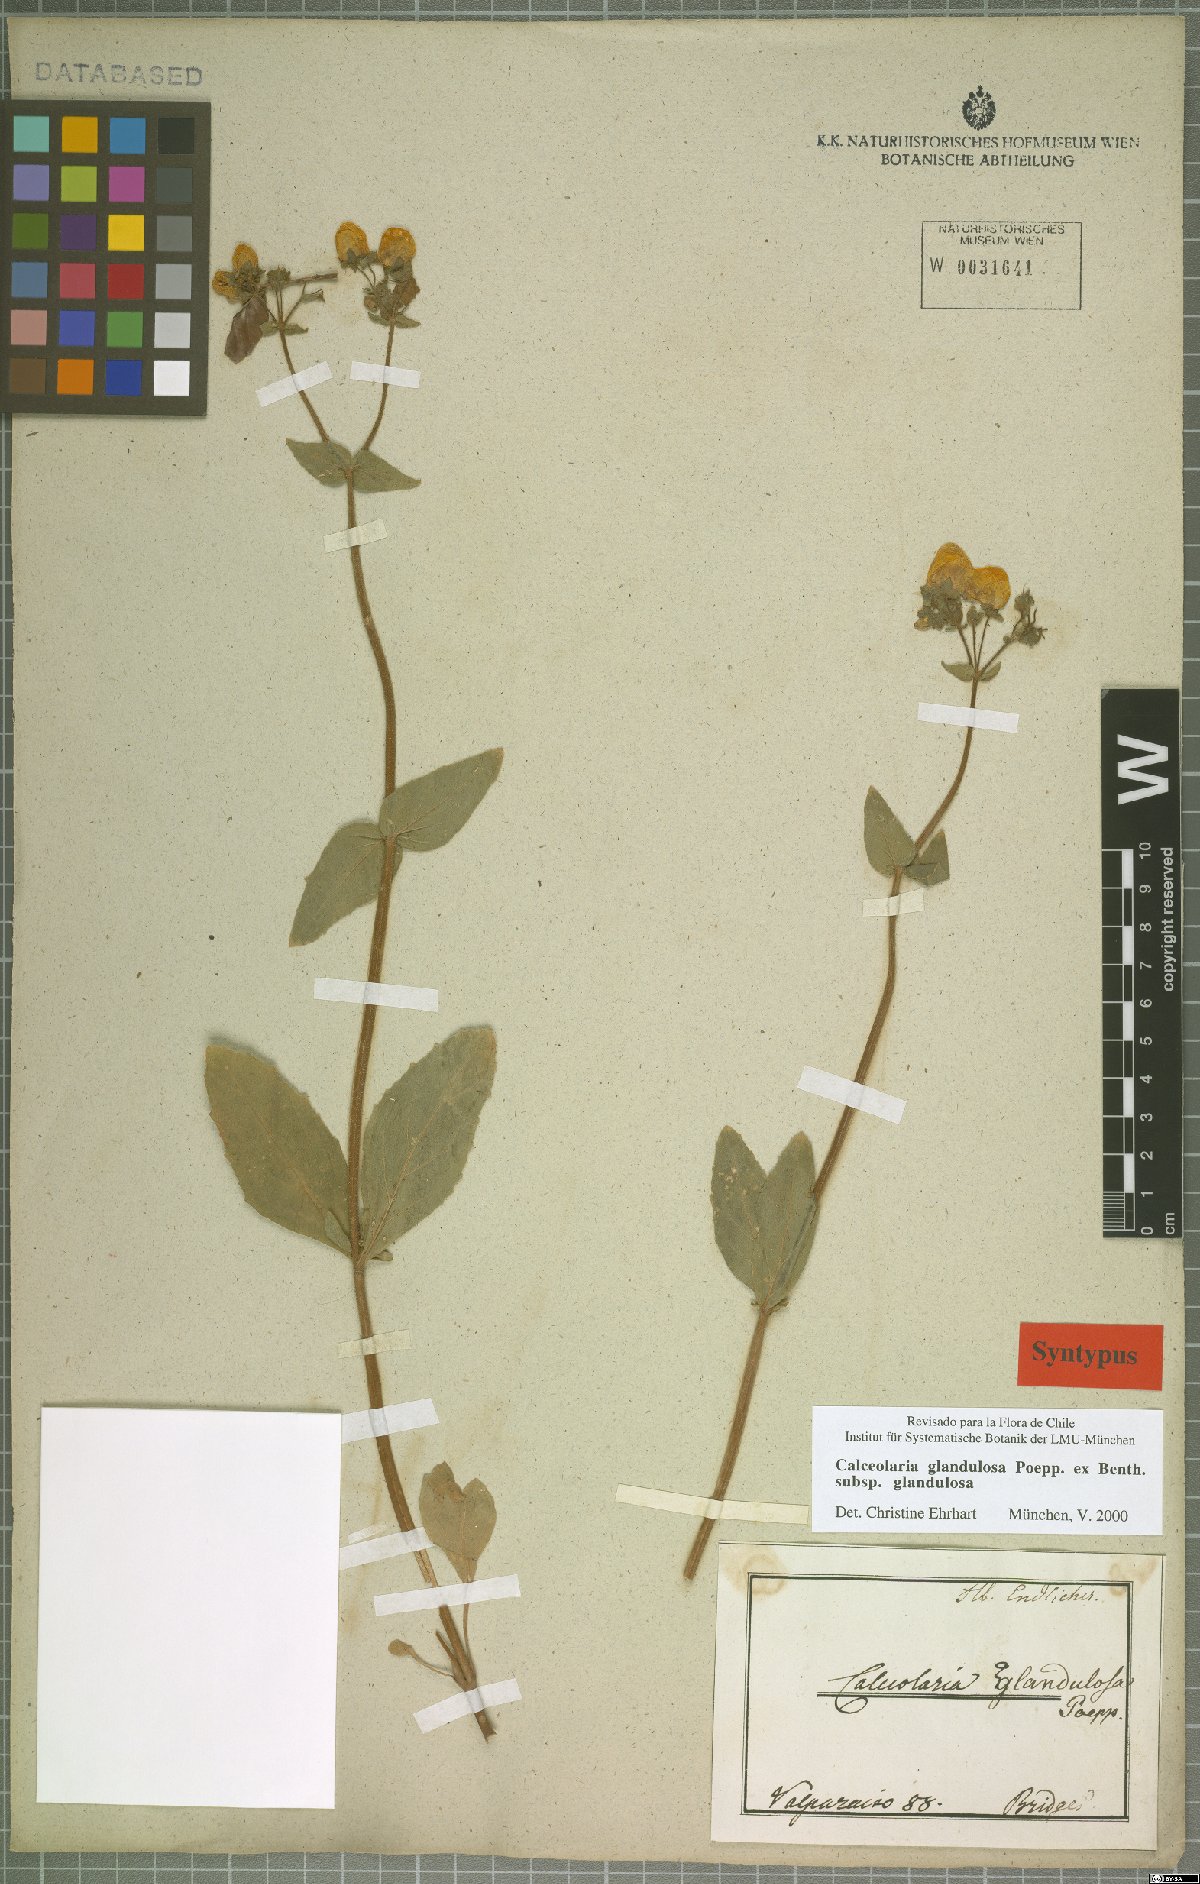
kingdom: Plantae
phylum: Tracheophyta
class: Magnoliopsida
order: Lamiales
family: Calceolariaceae
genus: Calceolaria
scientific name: Calceolaria glandulosa
